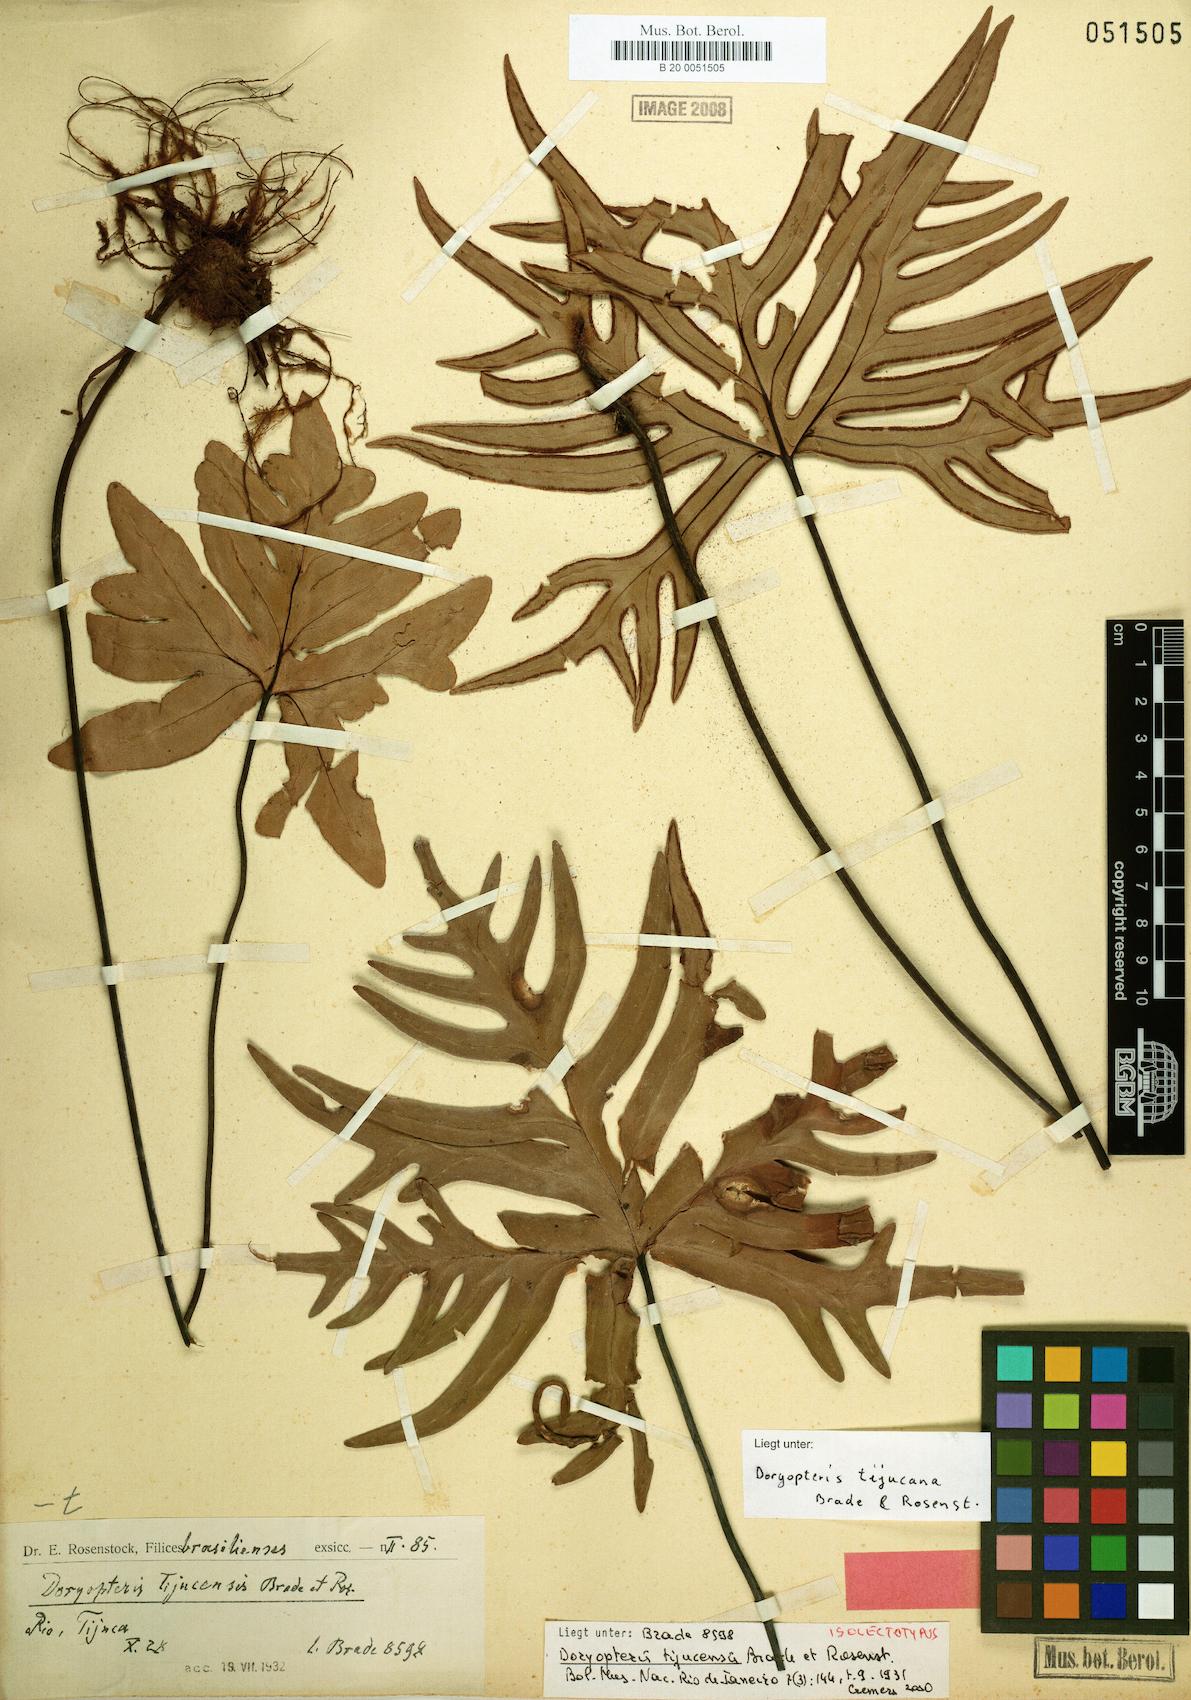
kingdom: Plantae
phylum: Tracheophyta
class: Polypodiopsida
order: Polypodiales
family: Pteridaceae
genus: Lytoneuron
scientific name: Lytoneuron tijucanum
